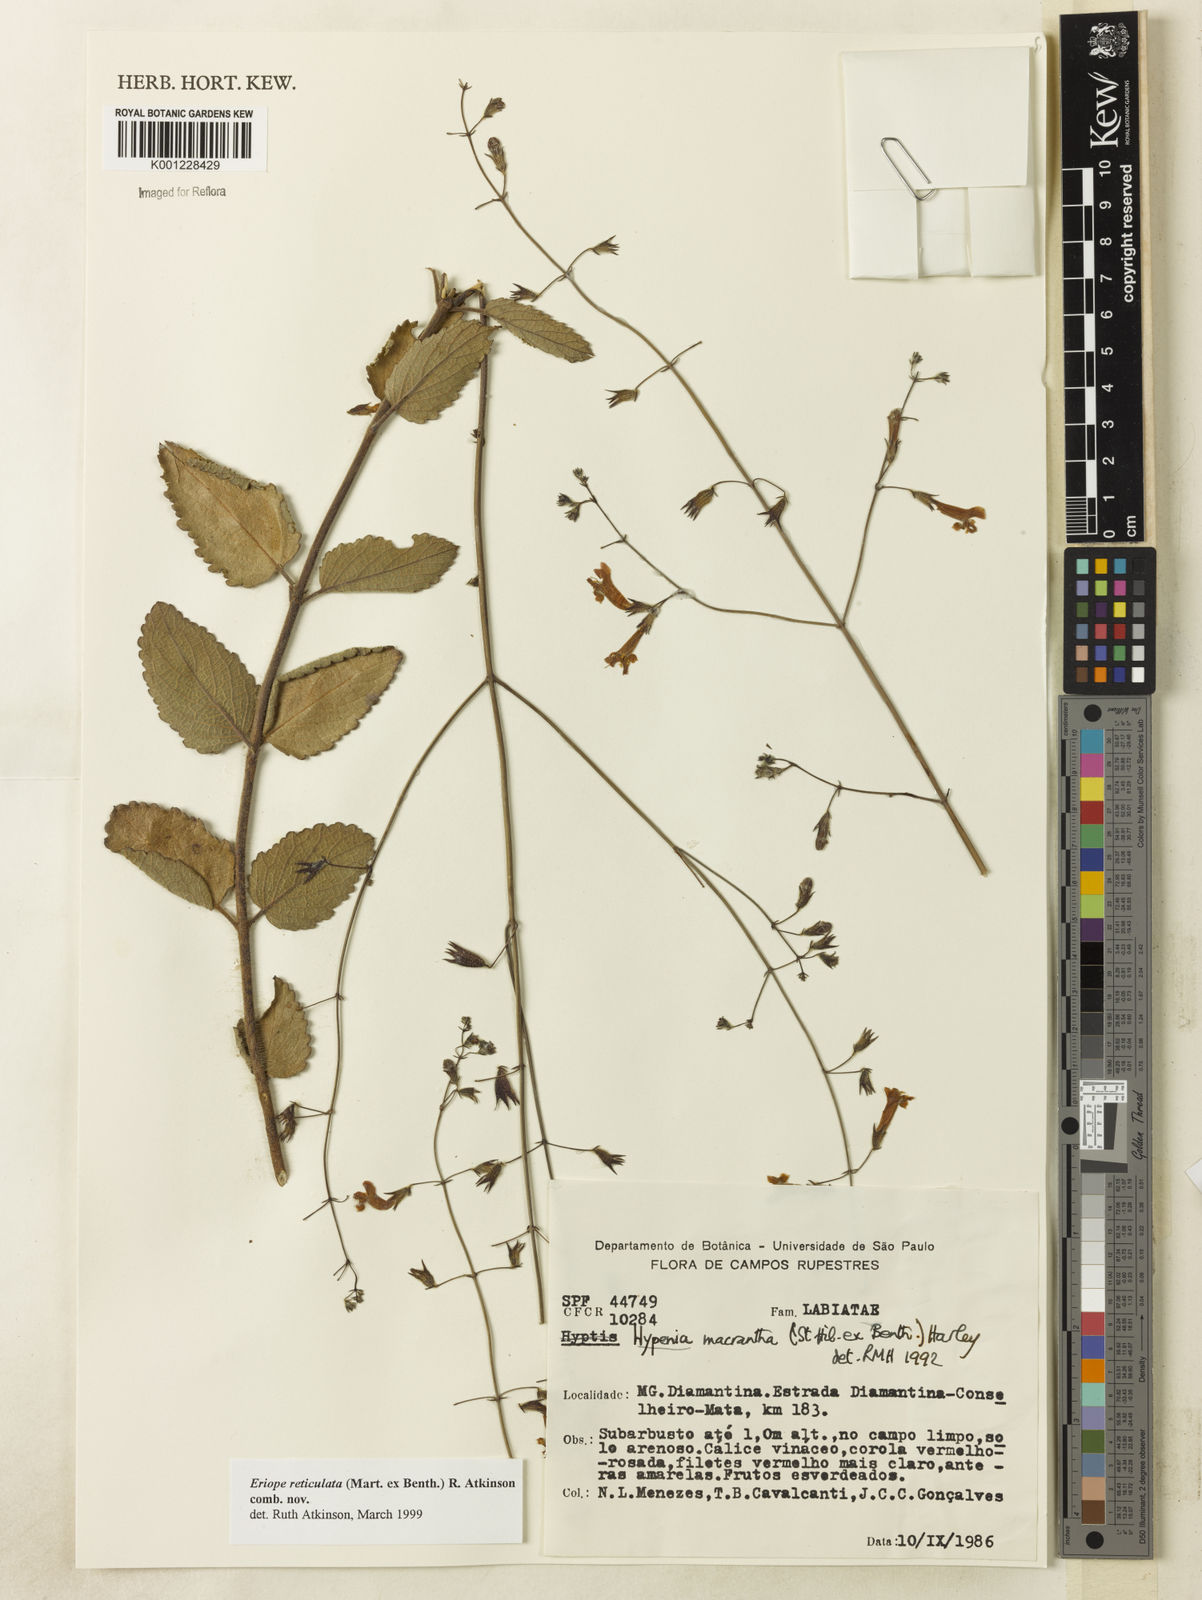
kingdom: Plantae
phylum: Tracheophyta
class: Magnoliopsida
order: Lamiales
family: Lamiaceae
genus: Hypenia
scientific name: Hypenia reticulata
